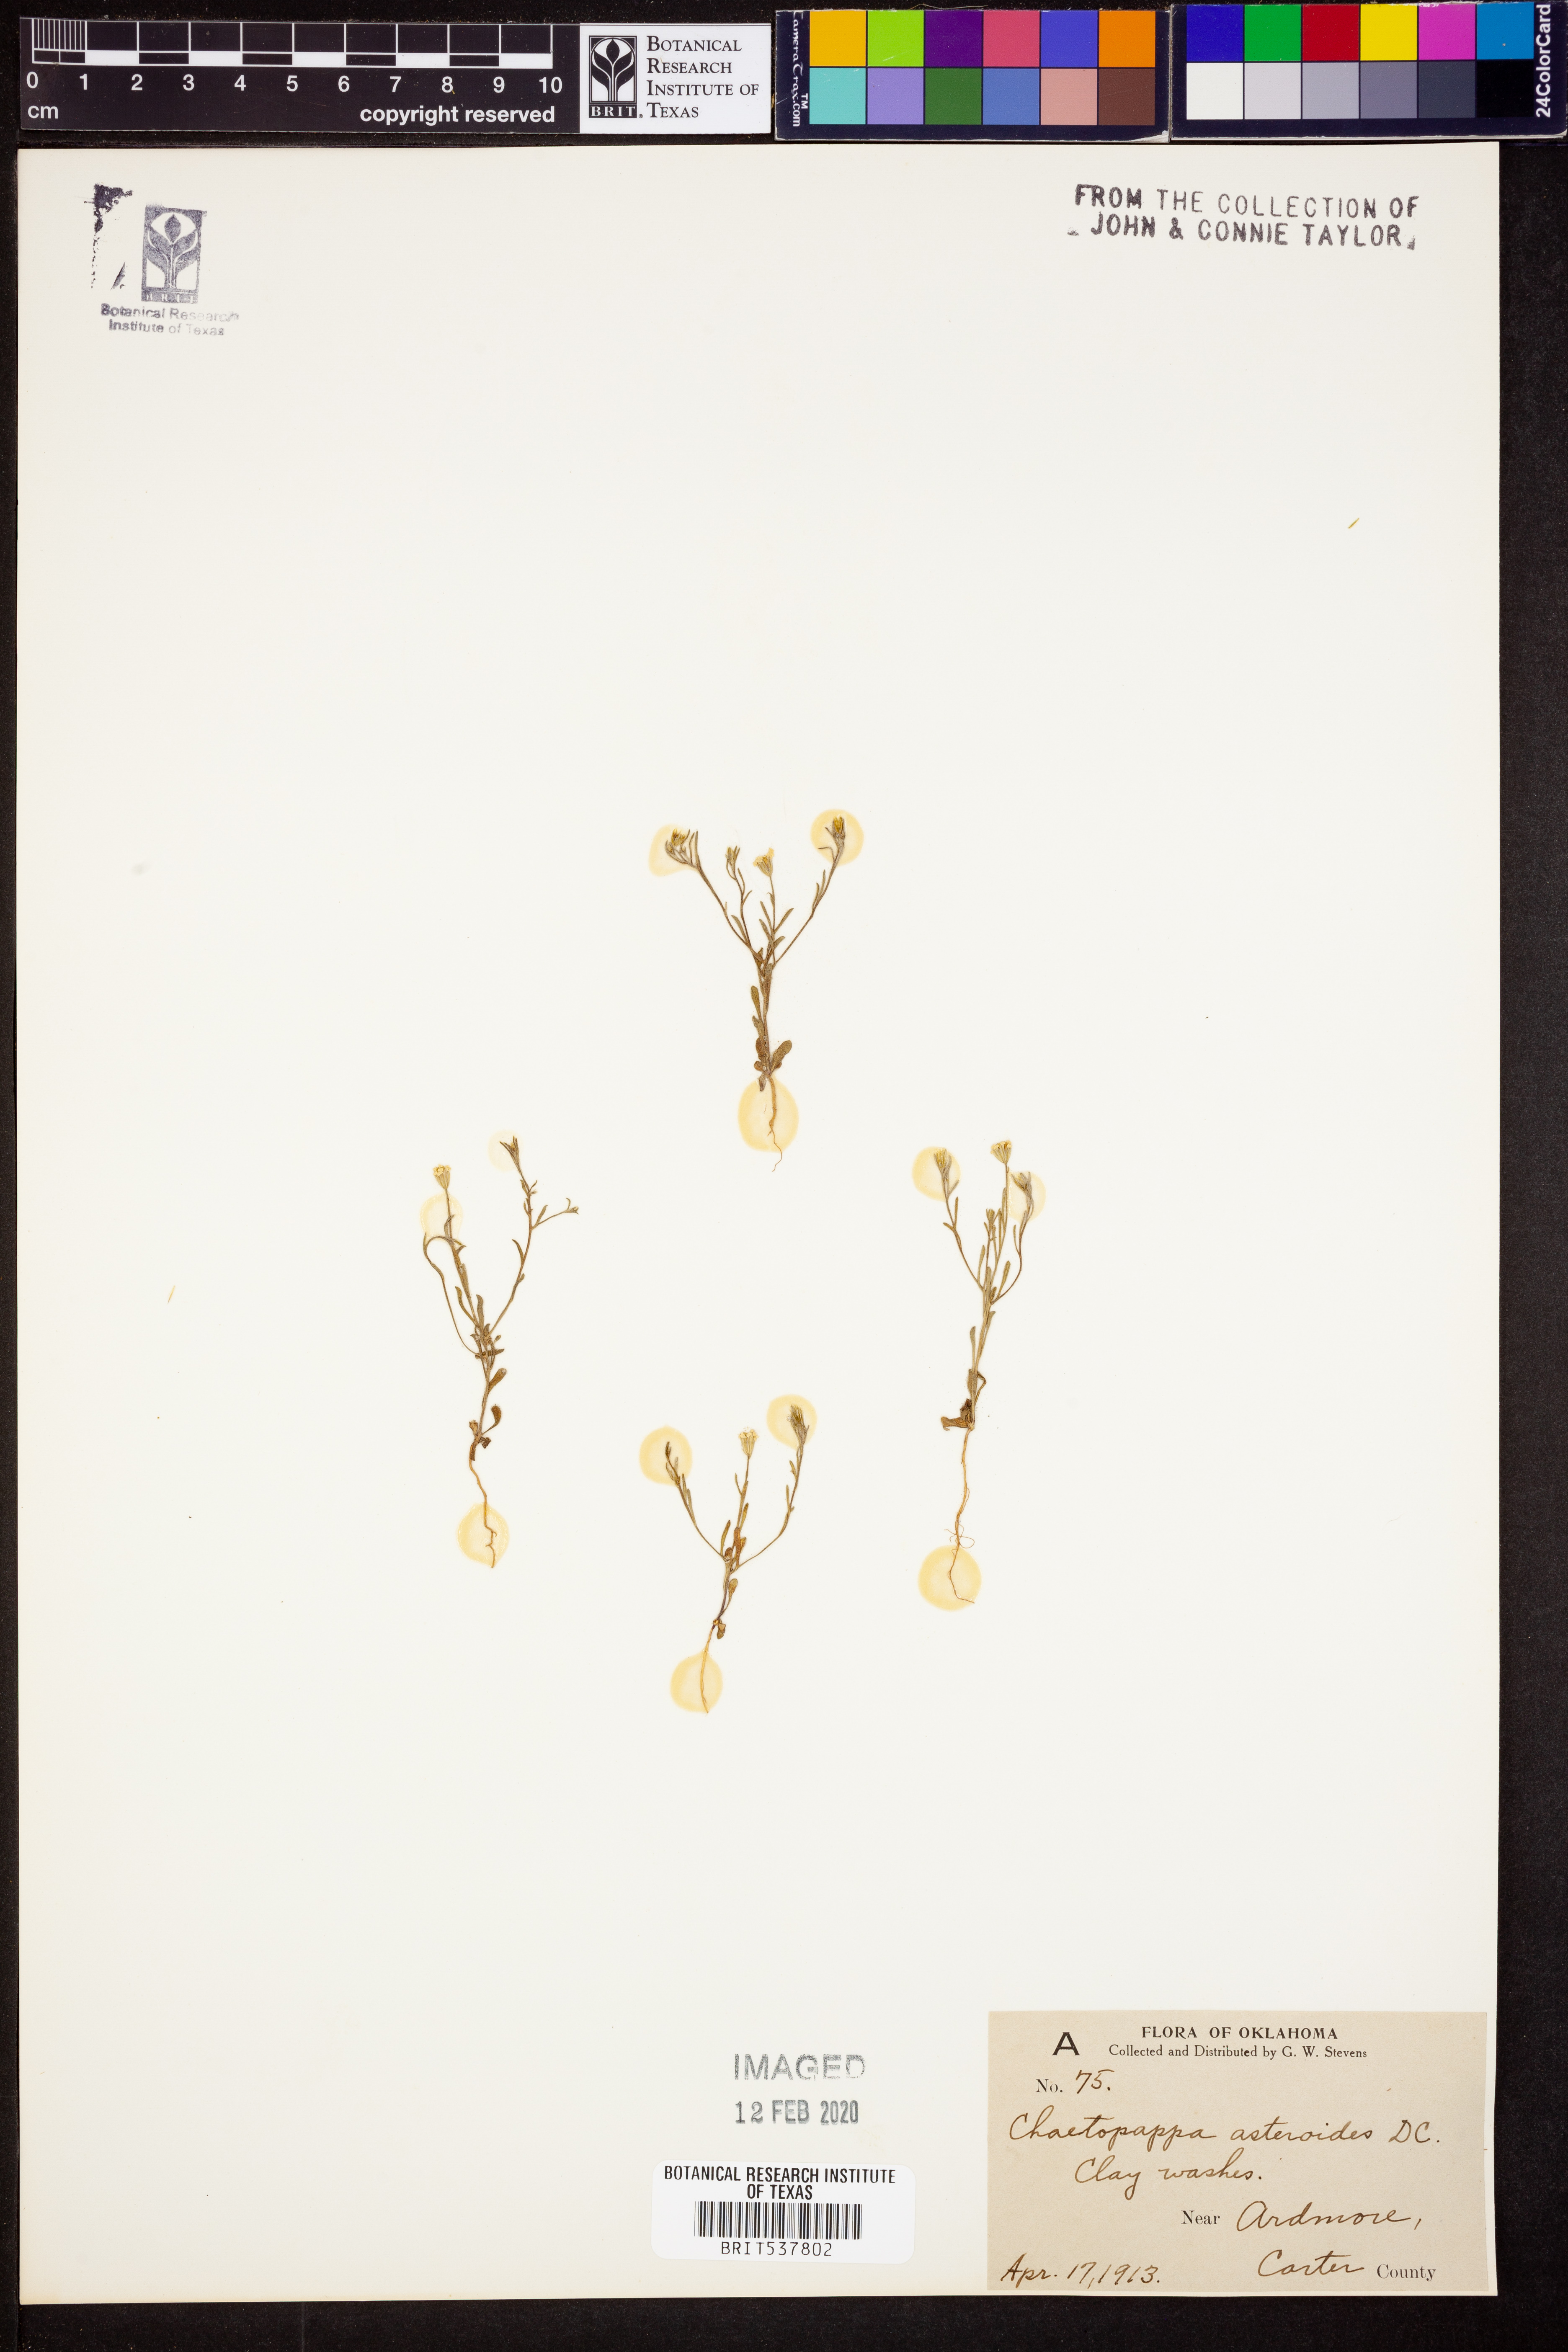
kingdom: Plantae
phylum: Tracheophyta
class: Magnoliopsida
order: Asterales
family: Asteraceae
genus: Chaetopappa
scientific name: Chaetopappa asteroides
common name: Tiny lazy daisy
